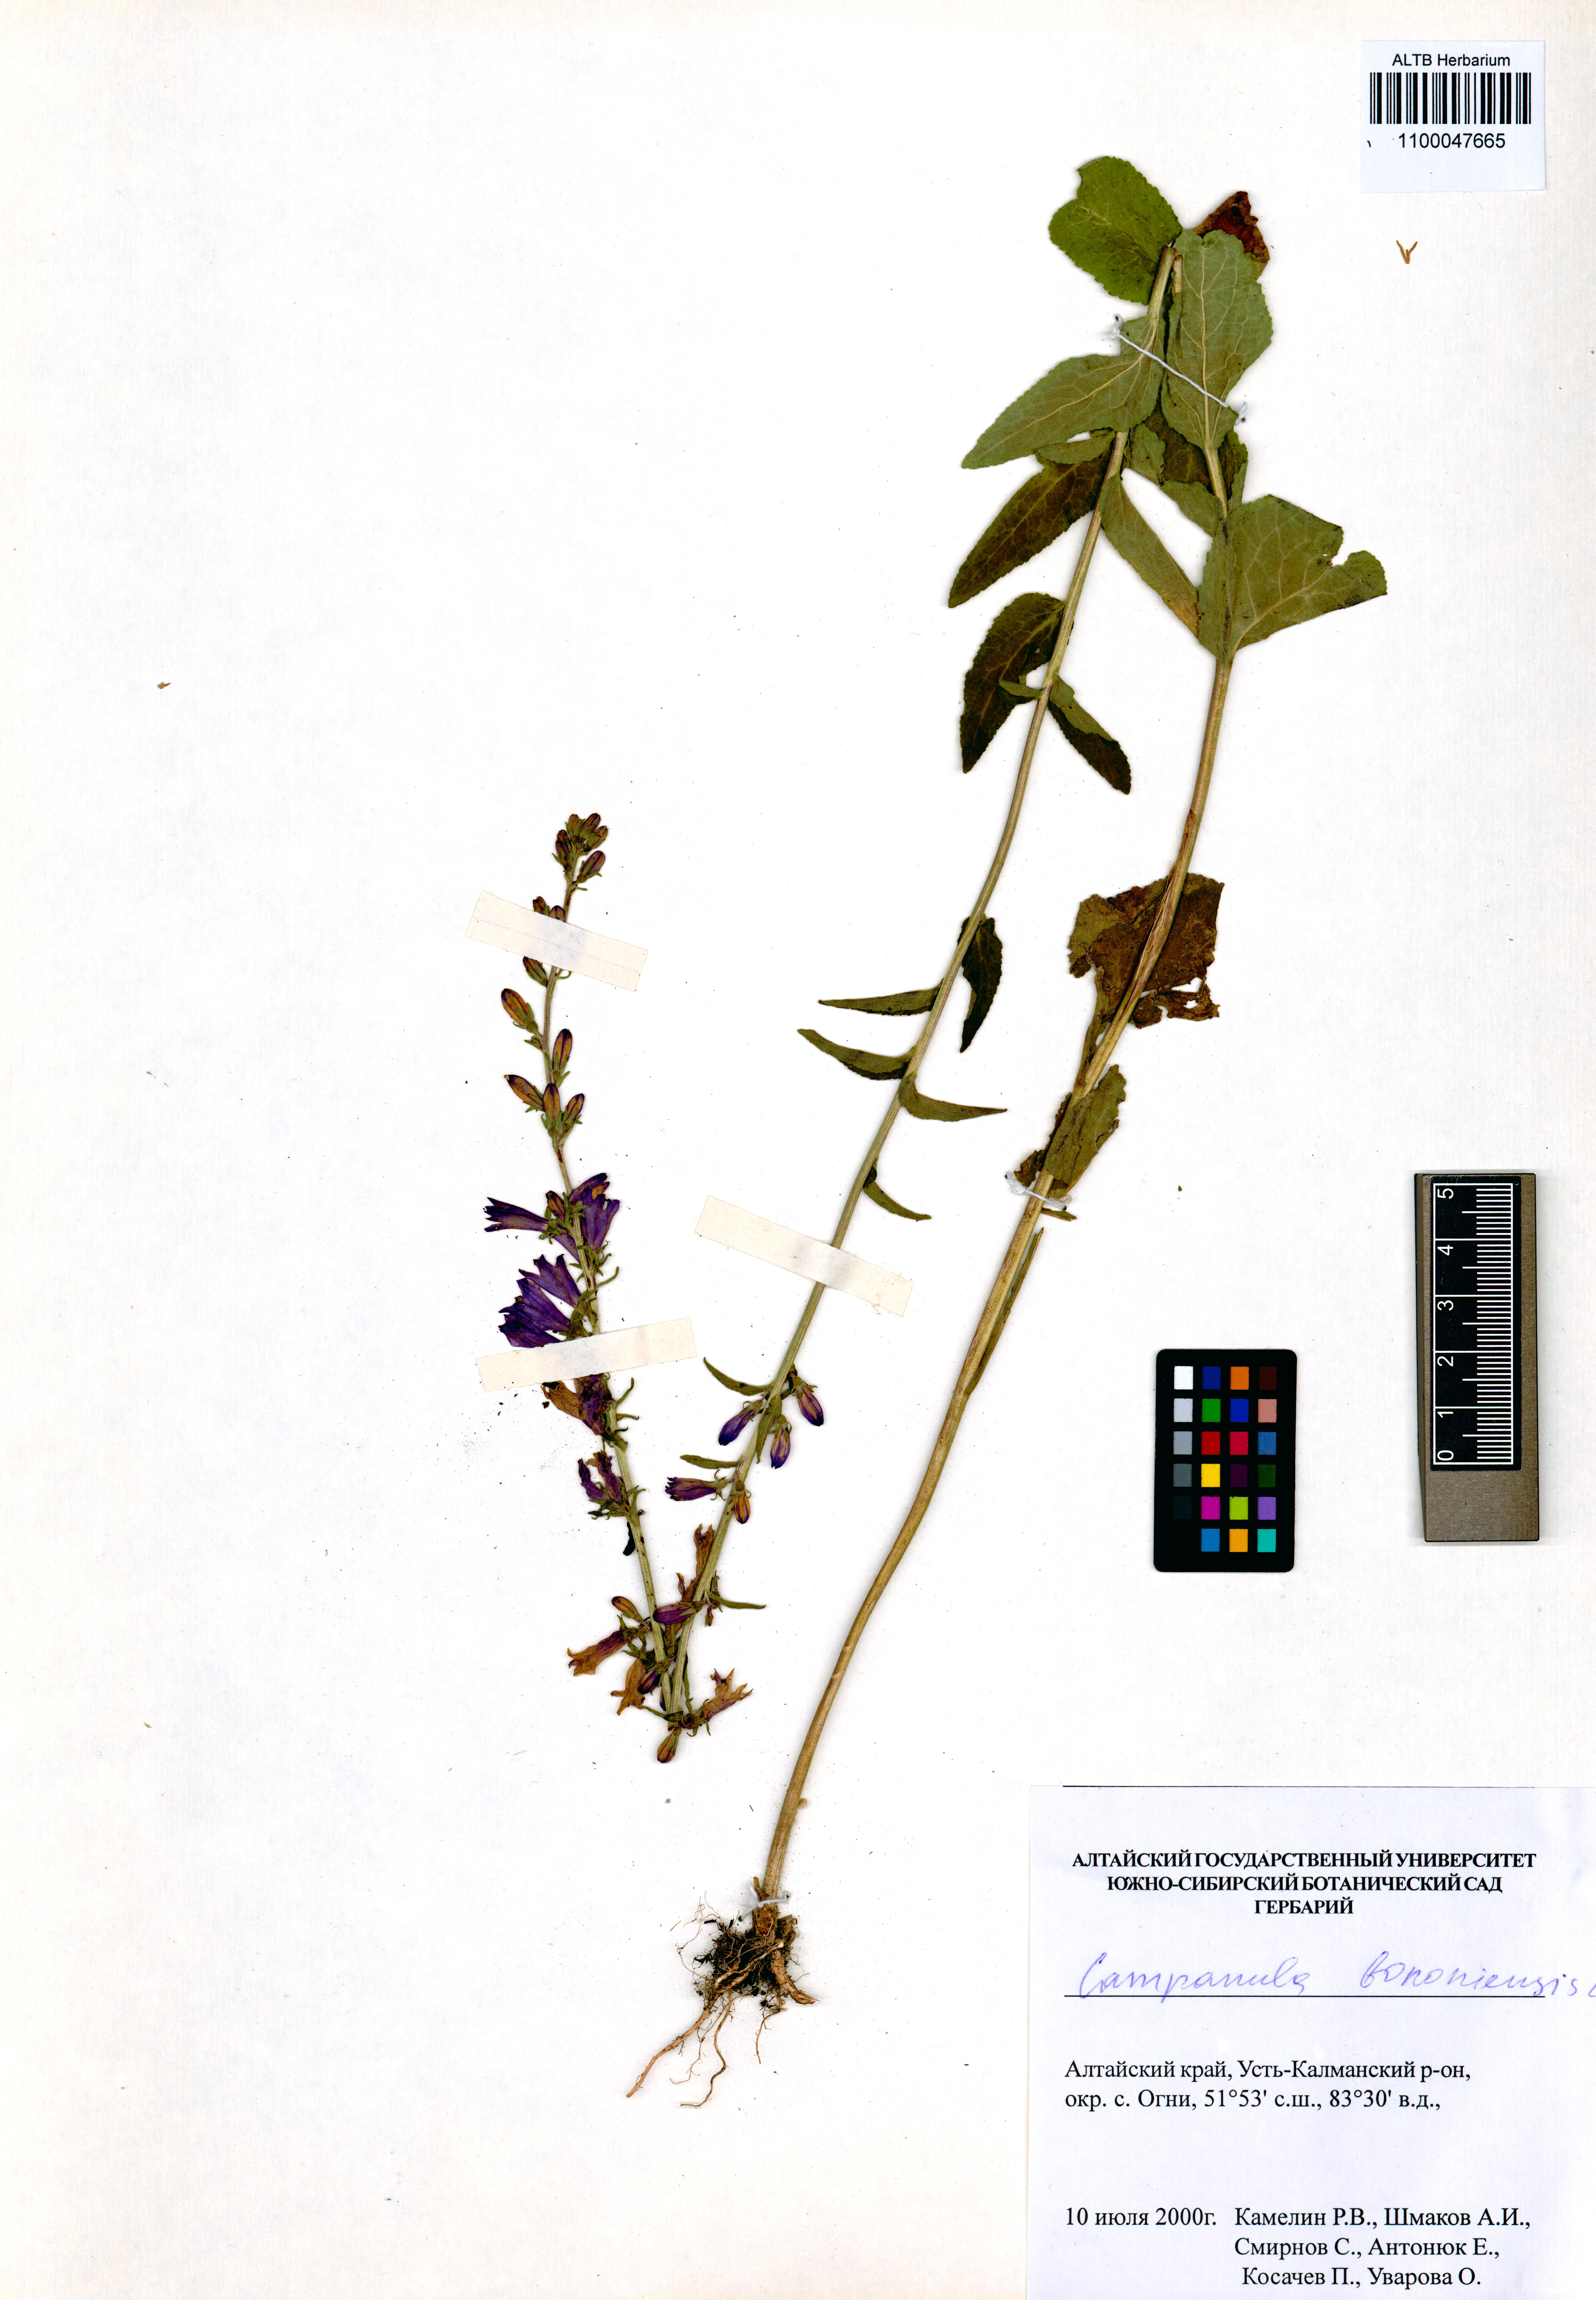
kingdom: Plantae
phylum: Tracheophyta
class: Magnoliopsida
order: Asterales
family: Campanulaceae
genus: Campanula
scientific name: Campanula bononiensis
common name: Pale bellflower
